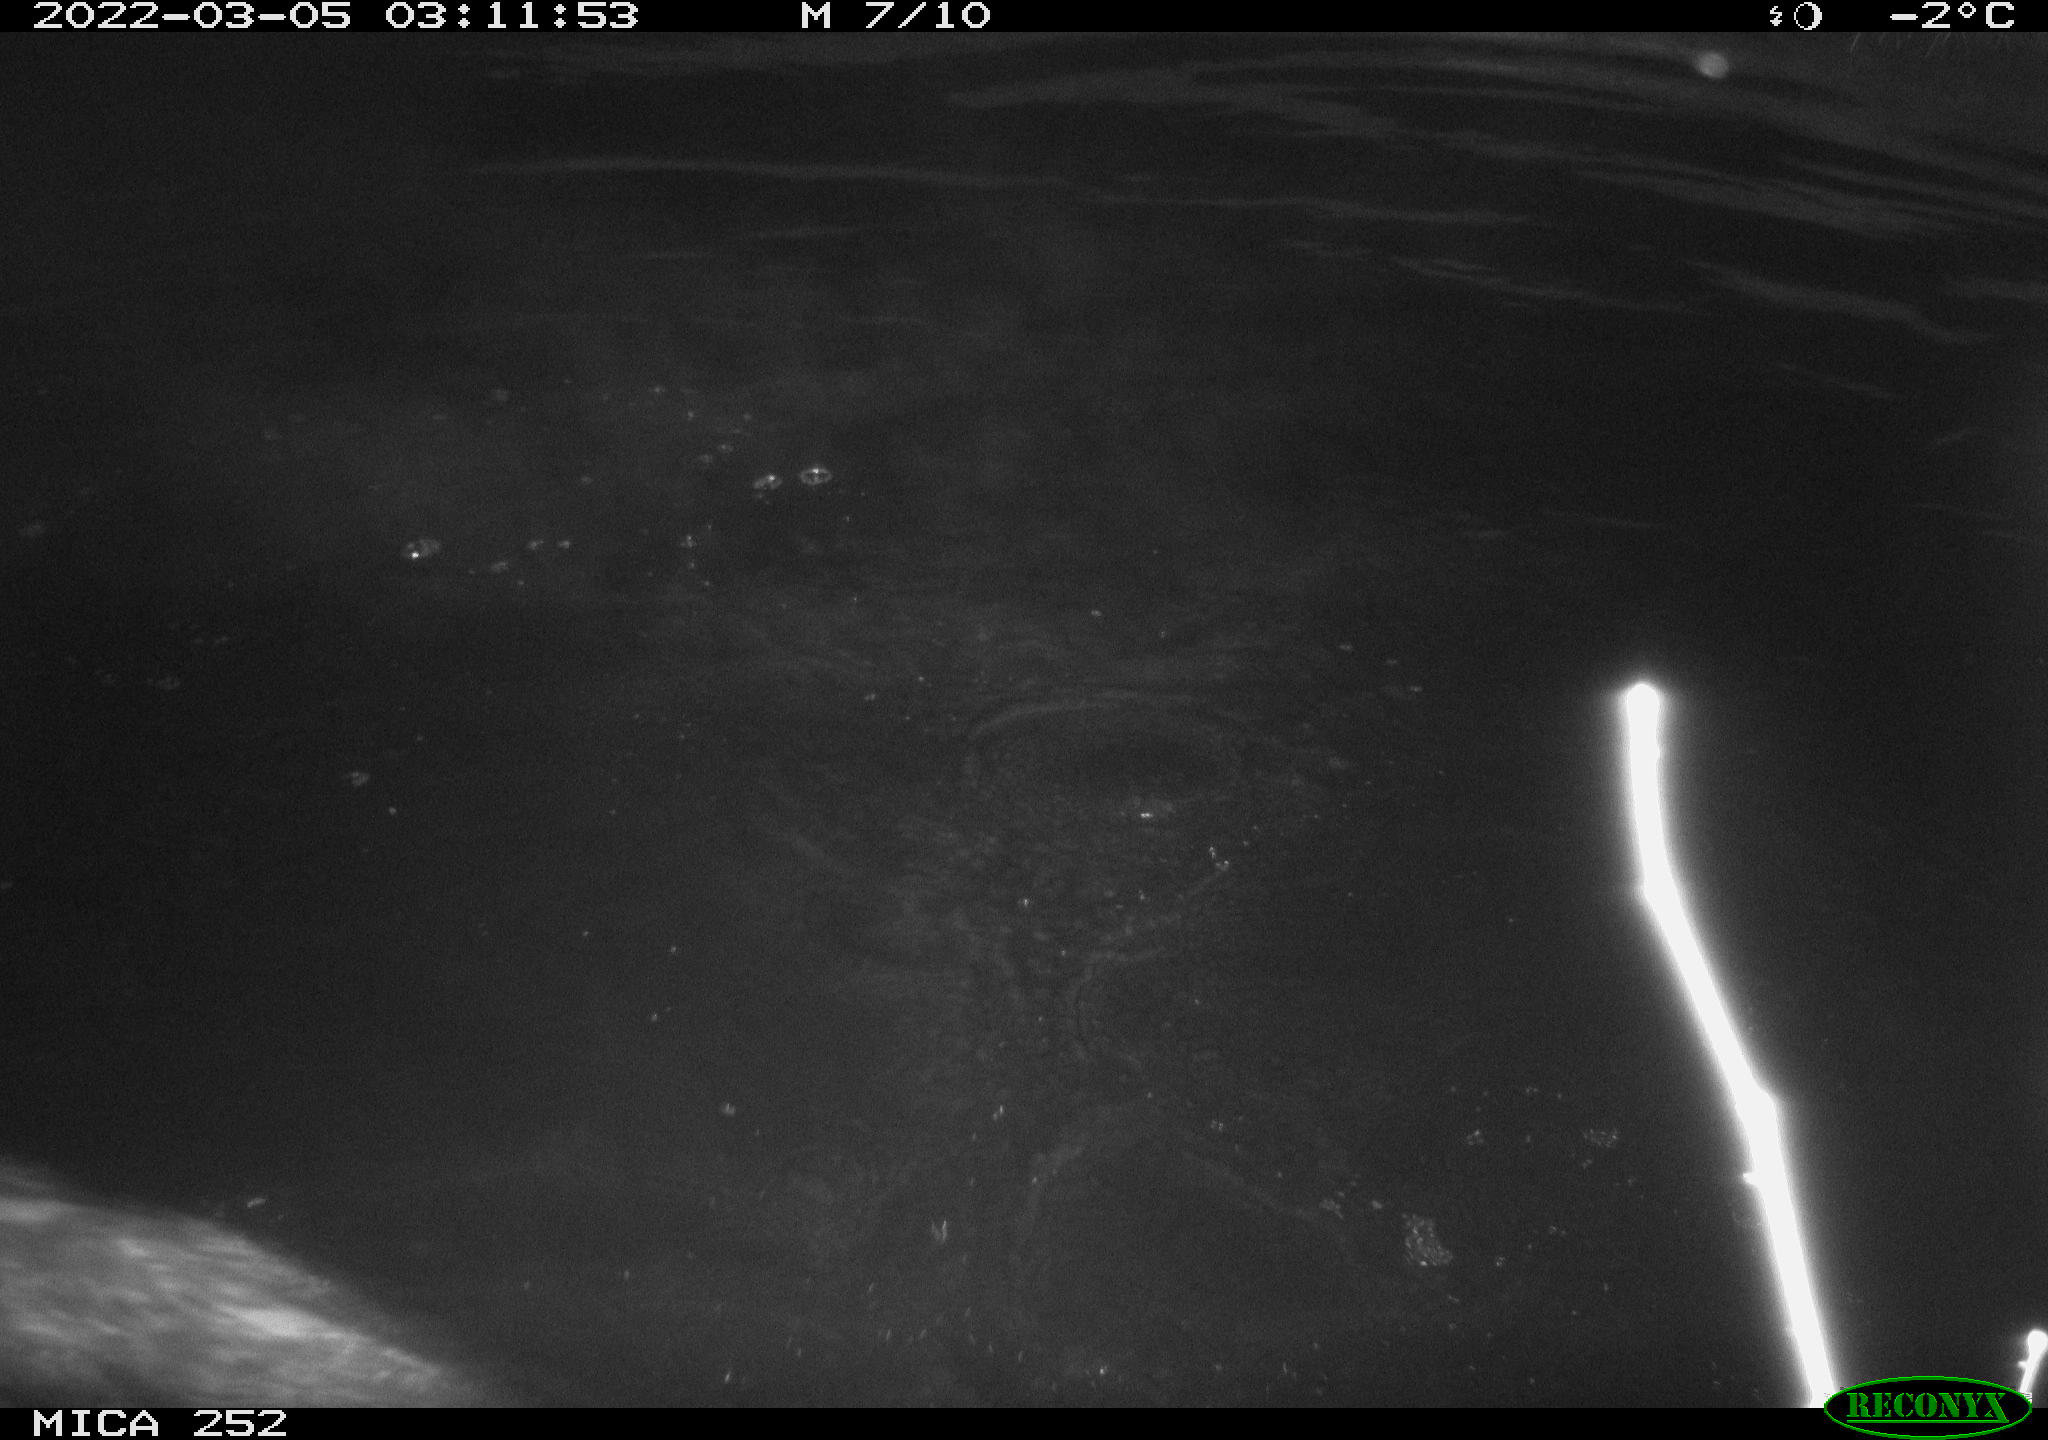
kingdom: Animalia
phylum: Chordata
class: Mammalia
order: Rodentia
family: Castoridae
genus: Castor
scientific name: Castor fiber
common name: Eurasian beaver
